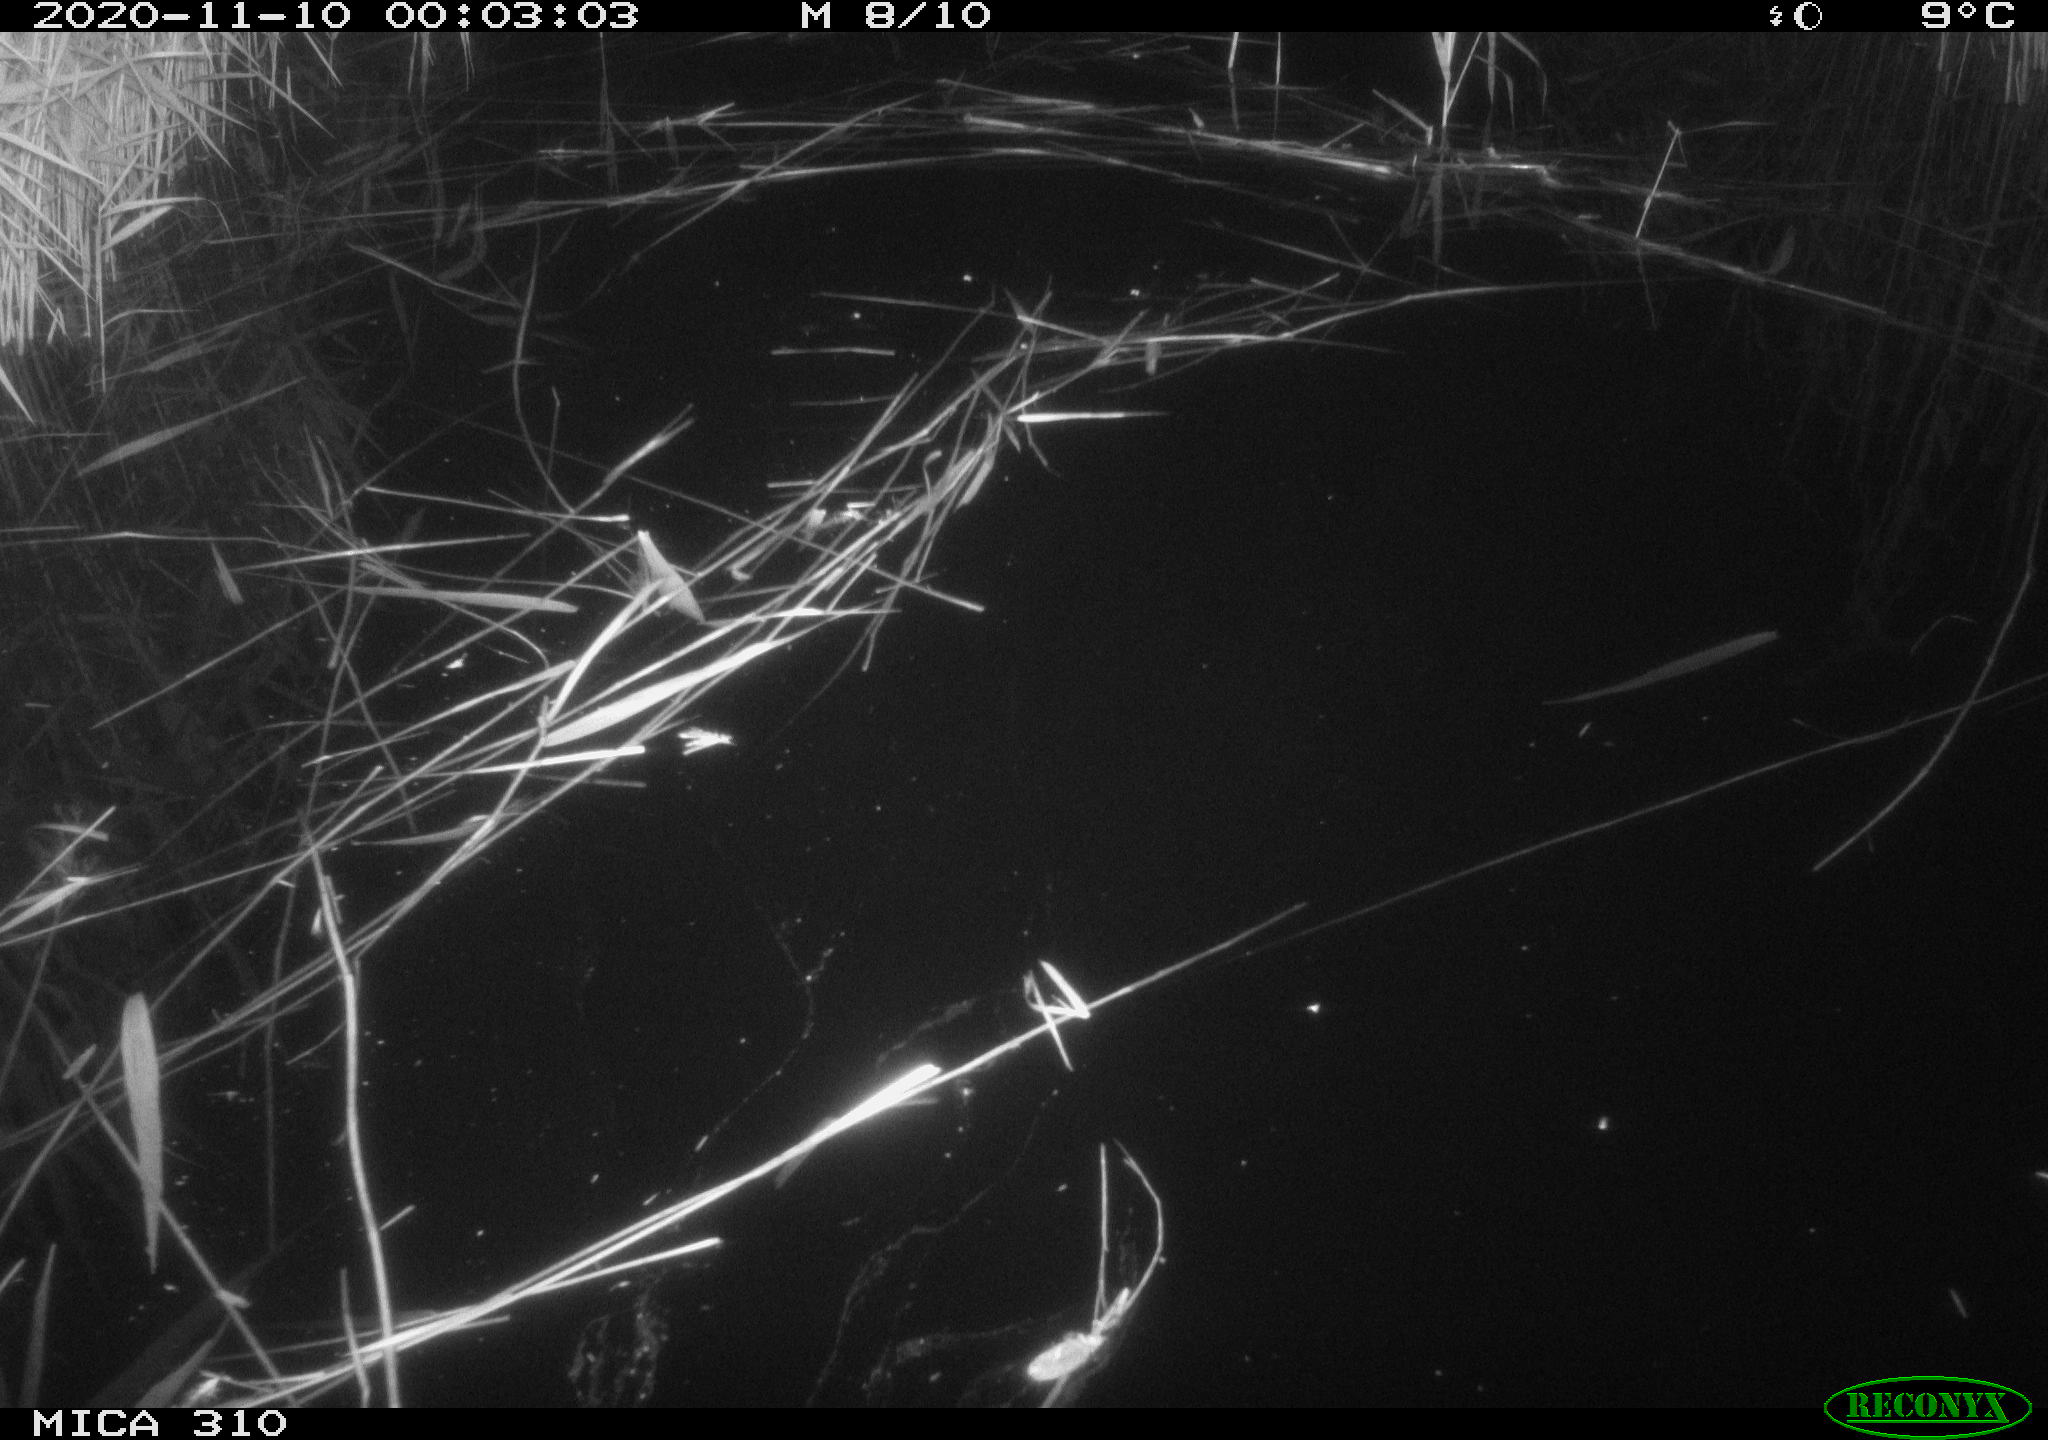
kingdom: Animalia
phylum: Chordata
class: Mammalia
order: Rodentia
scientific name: Rodentia
